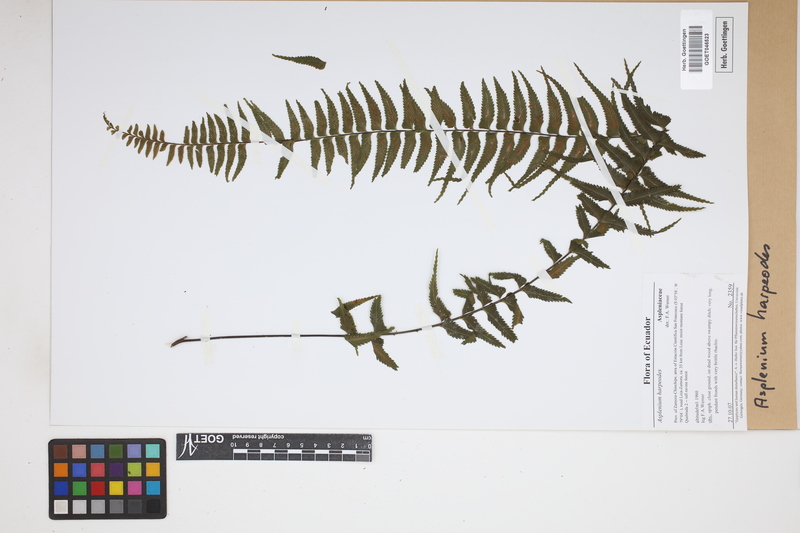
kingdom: Plantae
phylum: Tracheophyta
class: Polypodiopsida
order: Polypodiales
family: Aspleniaceae
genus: Asplenium
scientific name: Asplenium harpeodes
